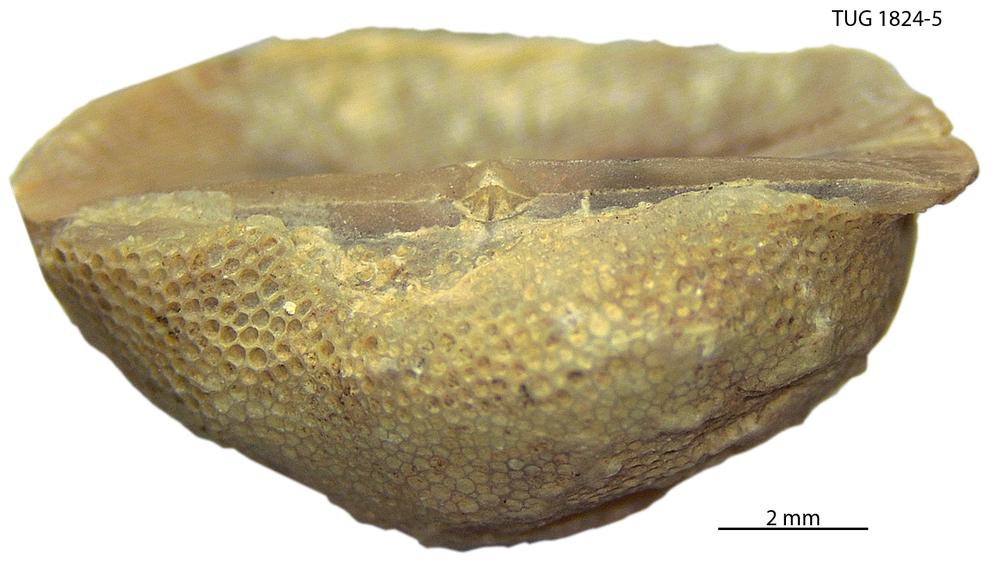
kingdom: Animalia
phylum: Bryozoa
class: Stenolaemata
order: Trepostomatida
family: Diplotrypidae
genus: Diplotrypa
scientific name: Diplotrypa
